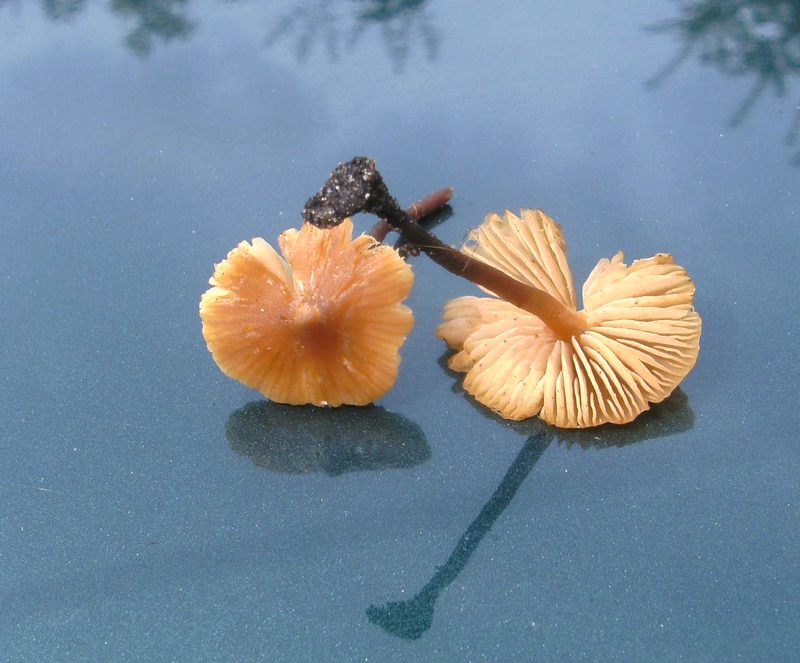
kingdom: Fungi
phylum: Basidiomycota
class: Agaricomycetes
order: Agaricales
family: Macrocystidiaceae
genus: Macrocystidia
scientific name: Macrocystidia cucumis
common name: Cucumber cap
